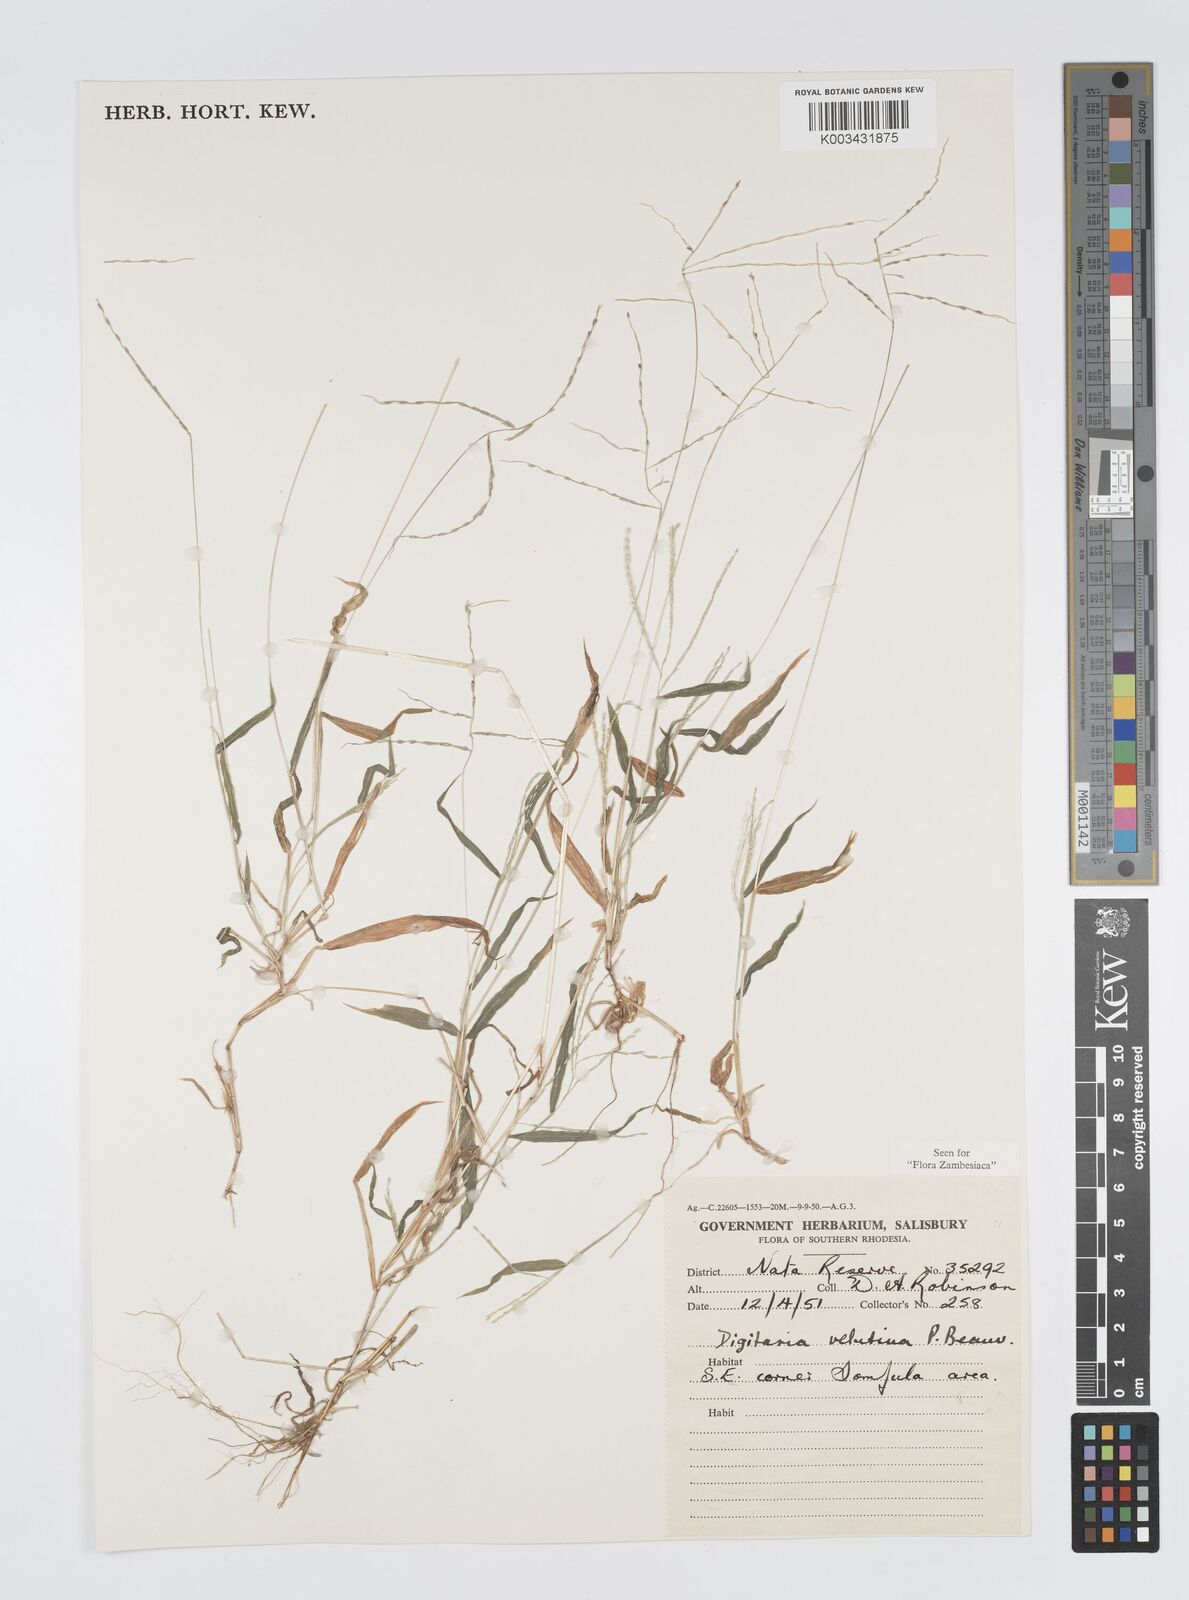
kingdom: Plantae
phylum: Tracheophyta
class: Liliopsida
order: Poales
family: Poaceae
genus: Digitaria
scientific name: Digitaria velutina
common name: Long-plume finger grass
